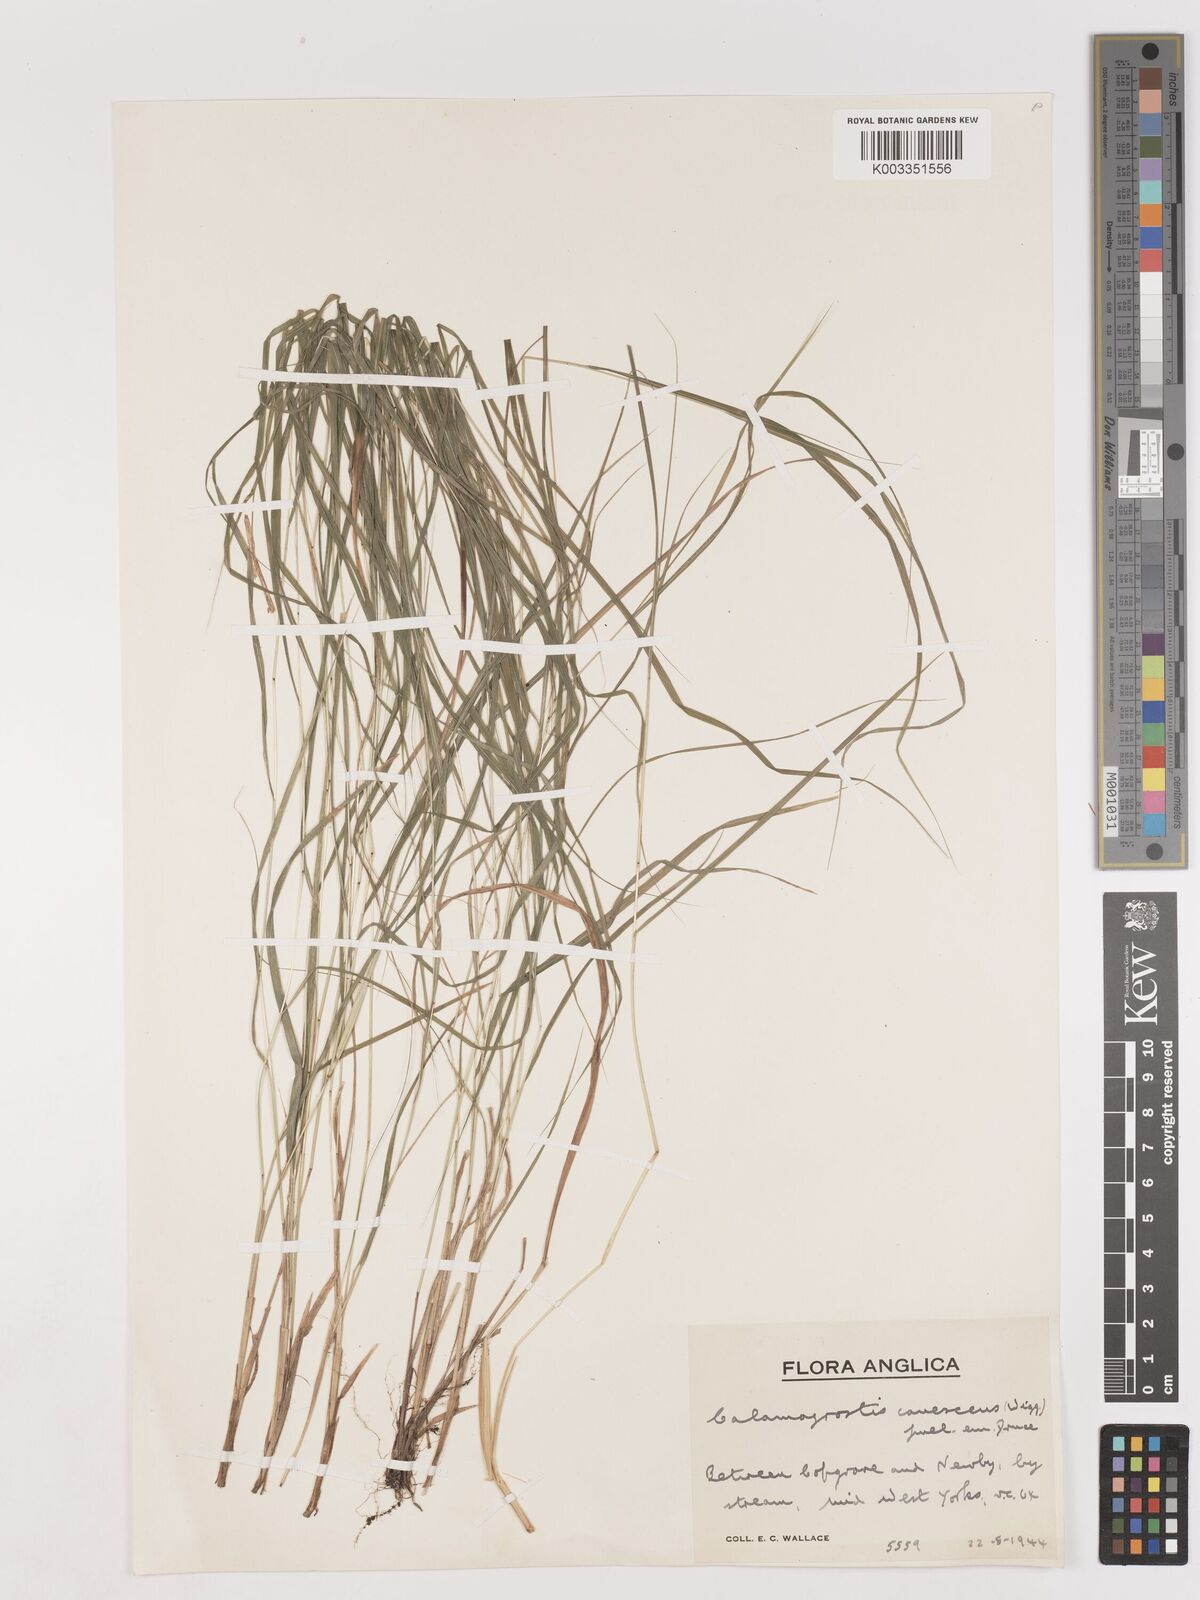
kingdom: Plantae
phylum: Tracheophyta
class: Liliopsida
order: Poales
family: Poaceae
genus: Calamagrostis
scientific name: Calamagrostis canescens
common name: Purple small-reed
